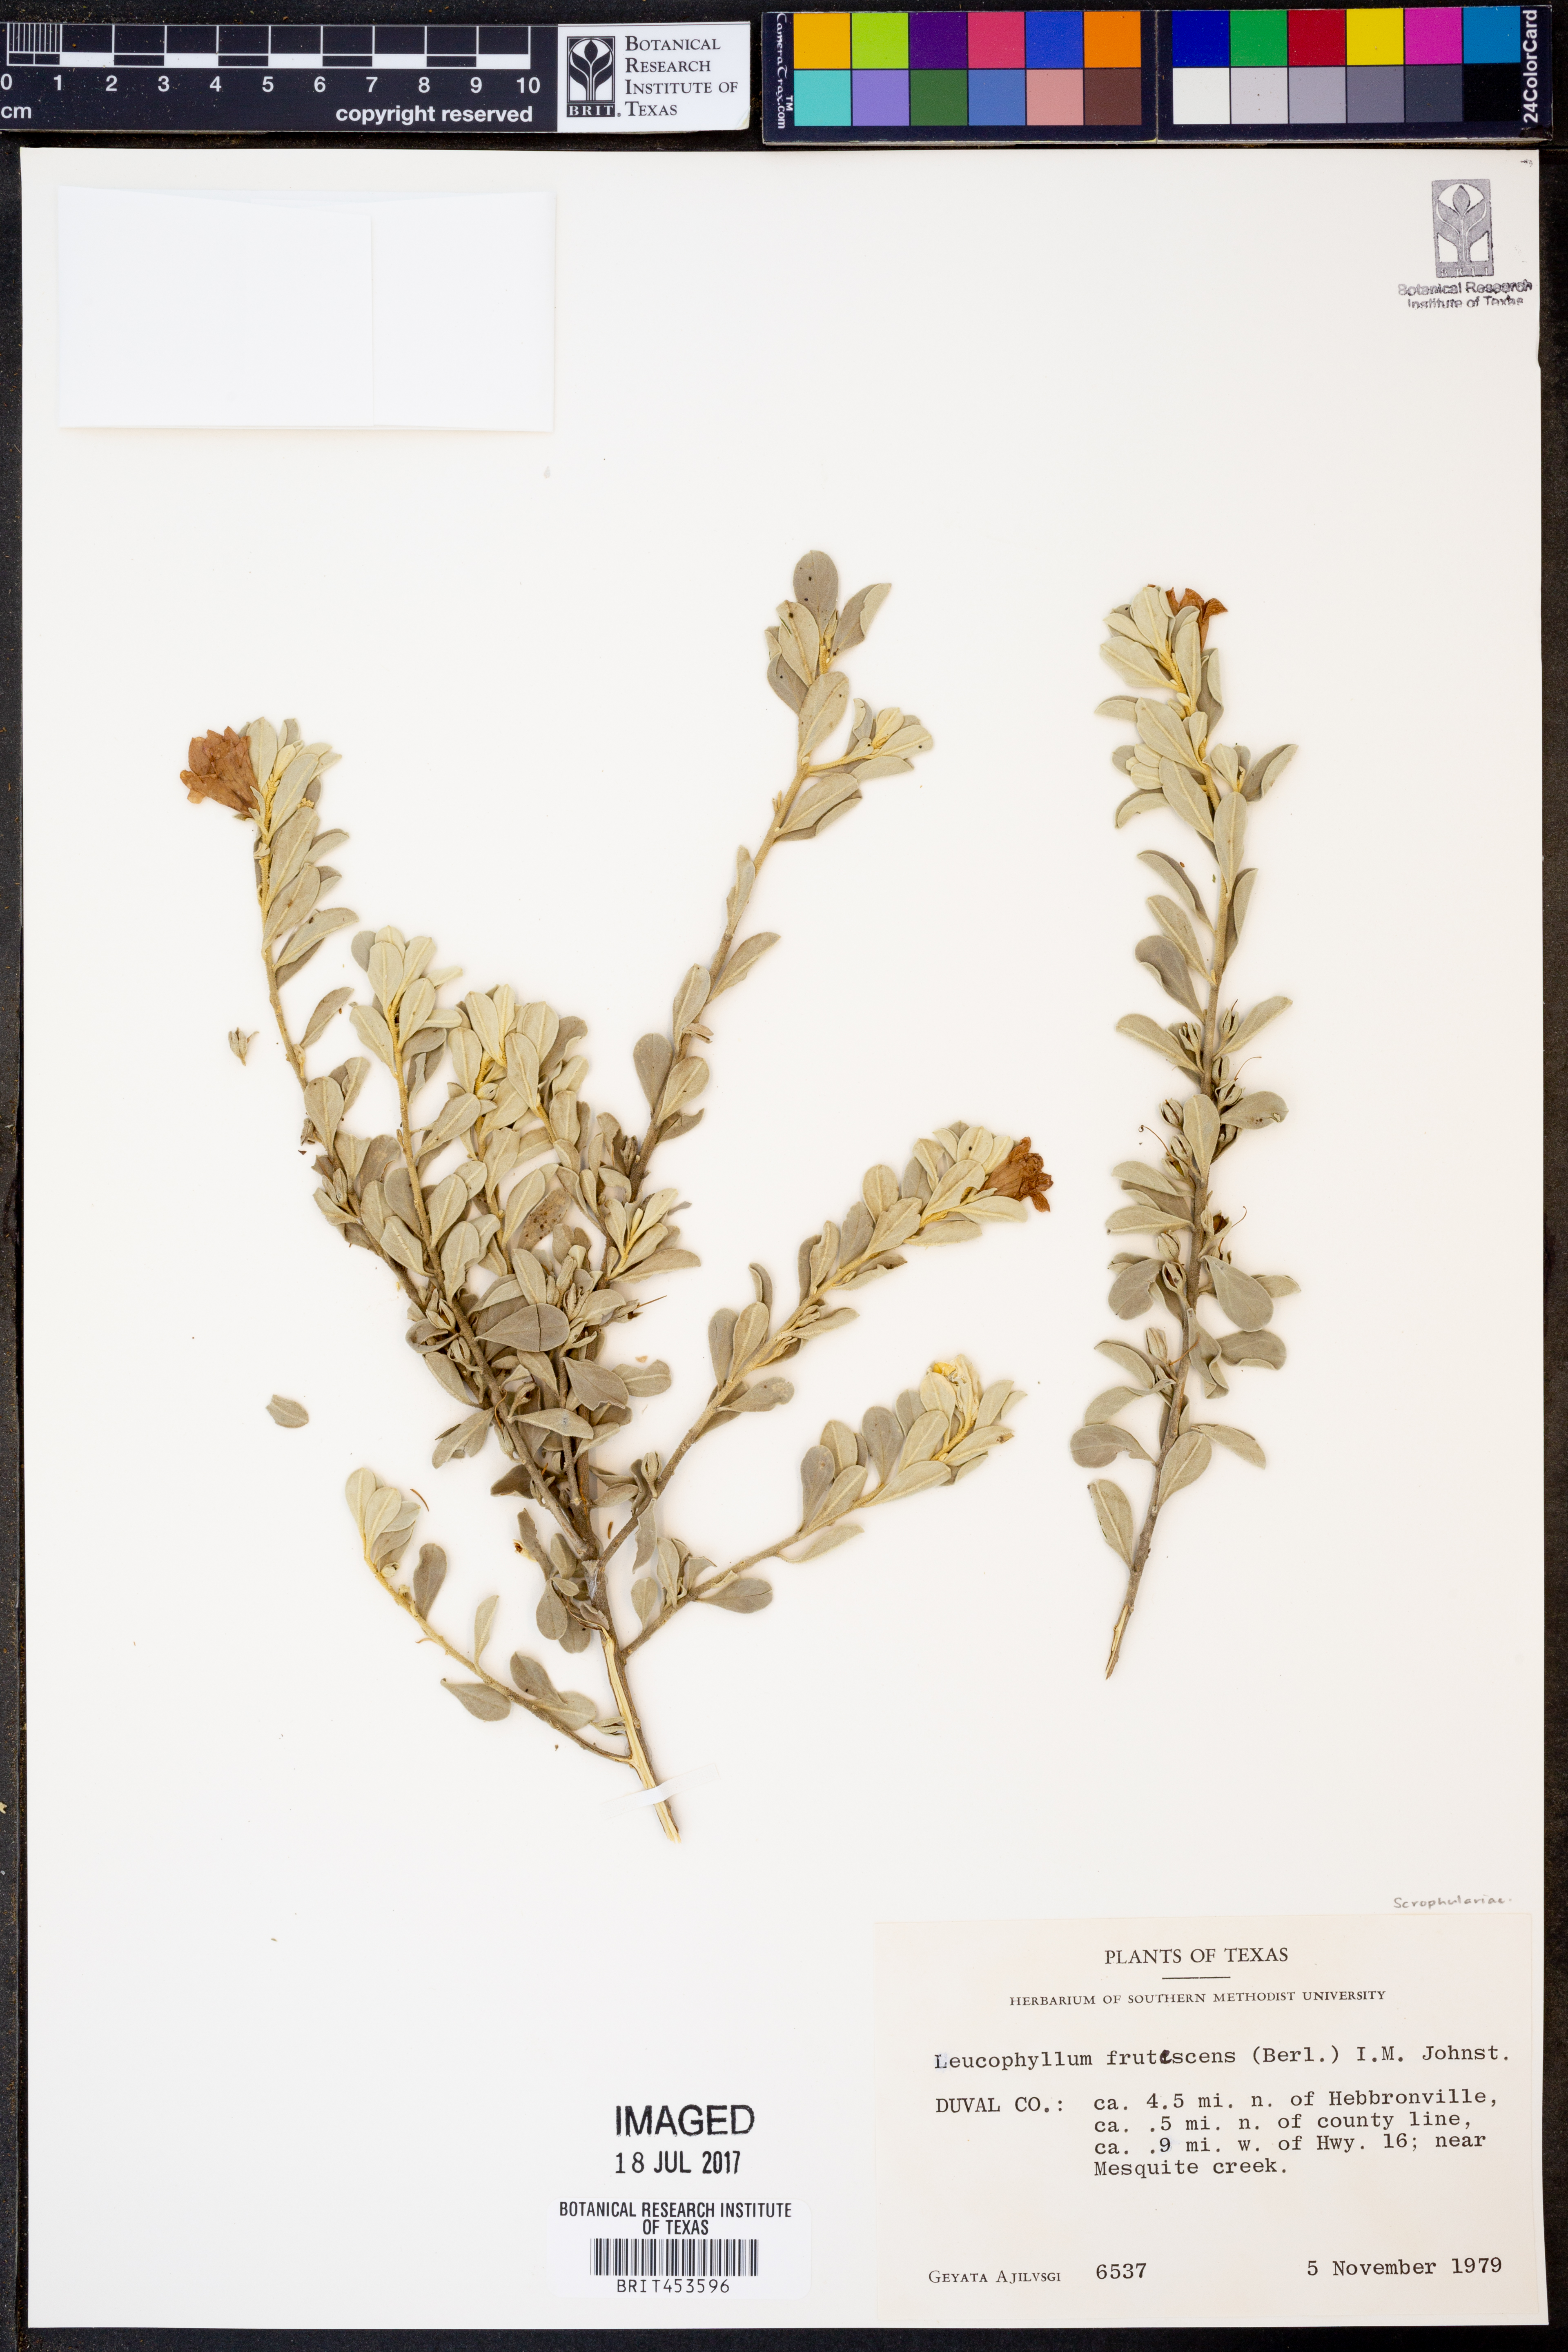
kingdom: Plantae
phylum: Tracheophyta
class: Magnoliopsida
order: Lamiales
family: Scrophulariaceae
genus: Leucophyllum
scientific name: Leucophyllum frutescens
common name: Texas silverleaf
